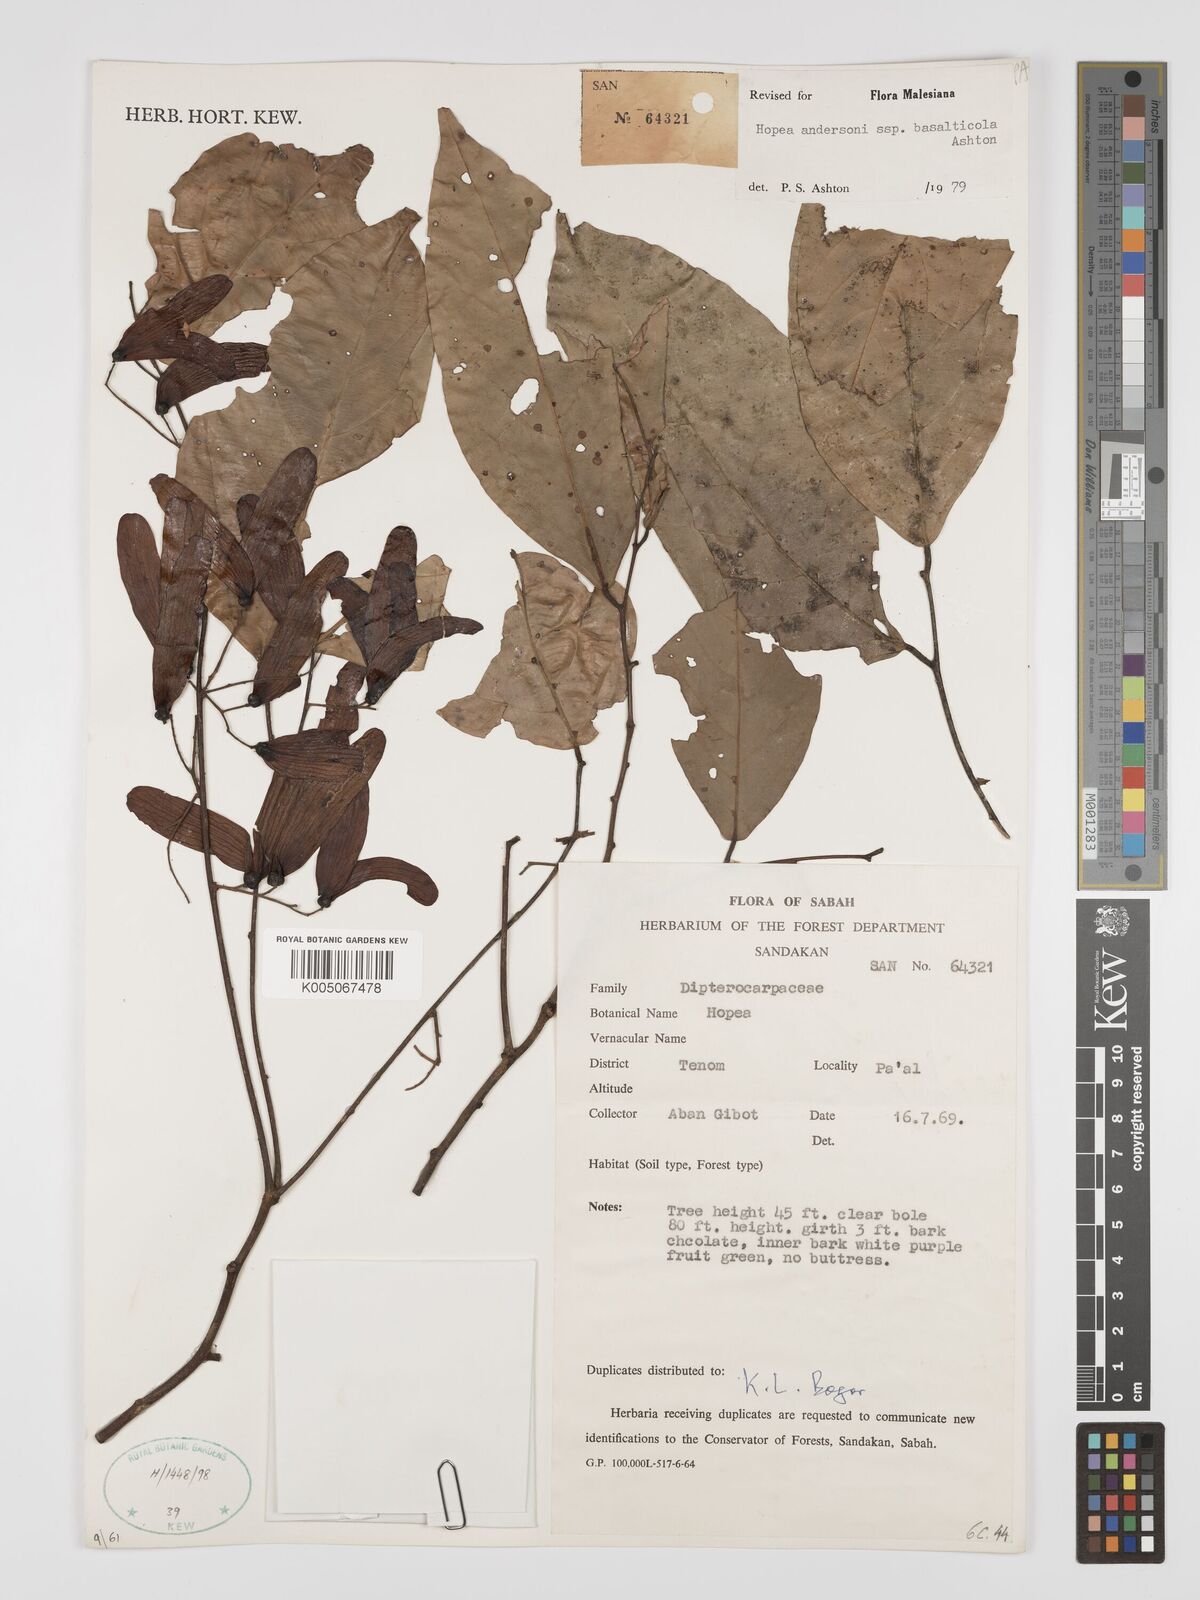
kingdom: Plantae
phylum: Tracheophyta
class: Magnoliopsida
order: Malvales
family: Dipterocarpaceae
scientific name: Dipterocarpaceae
